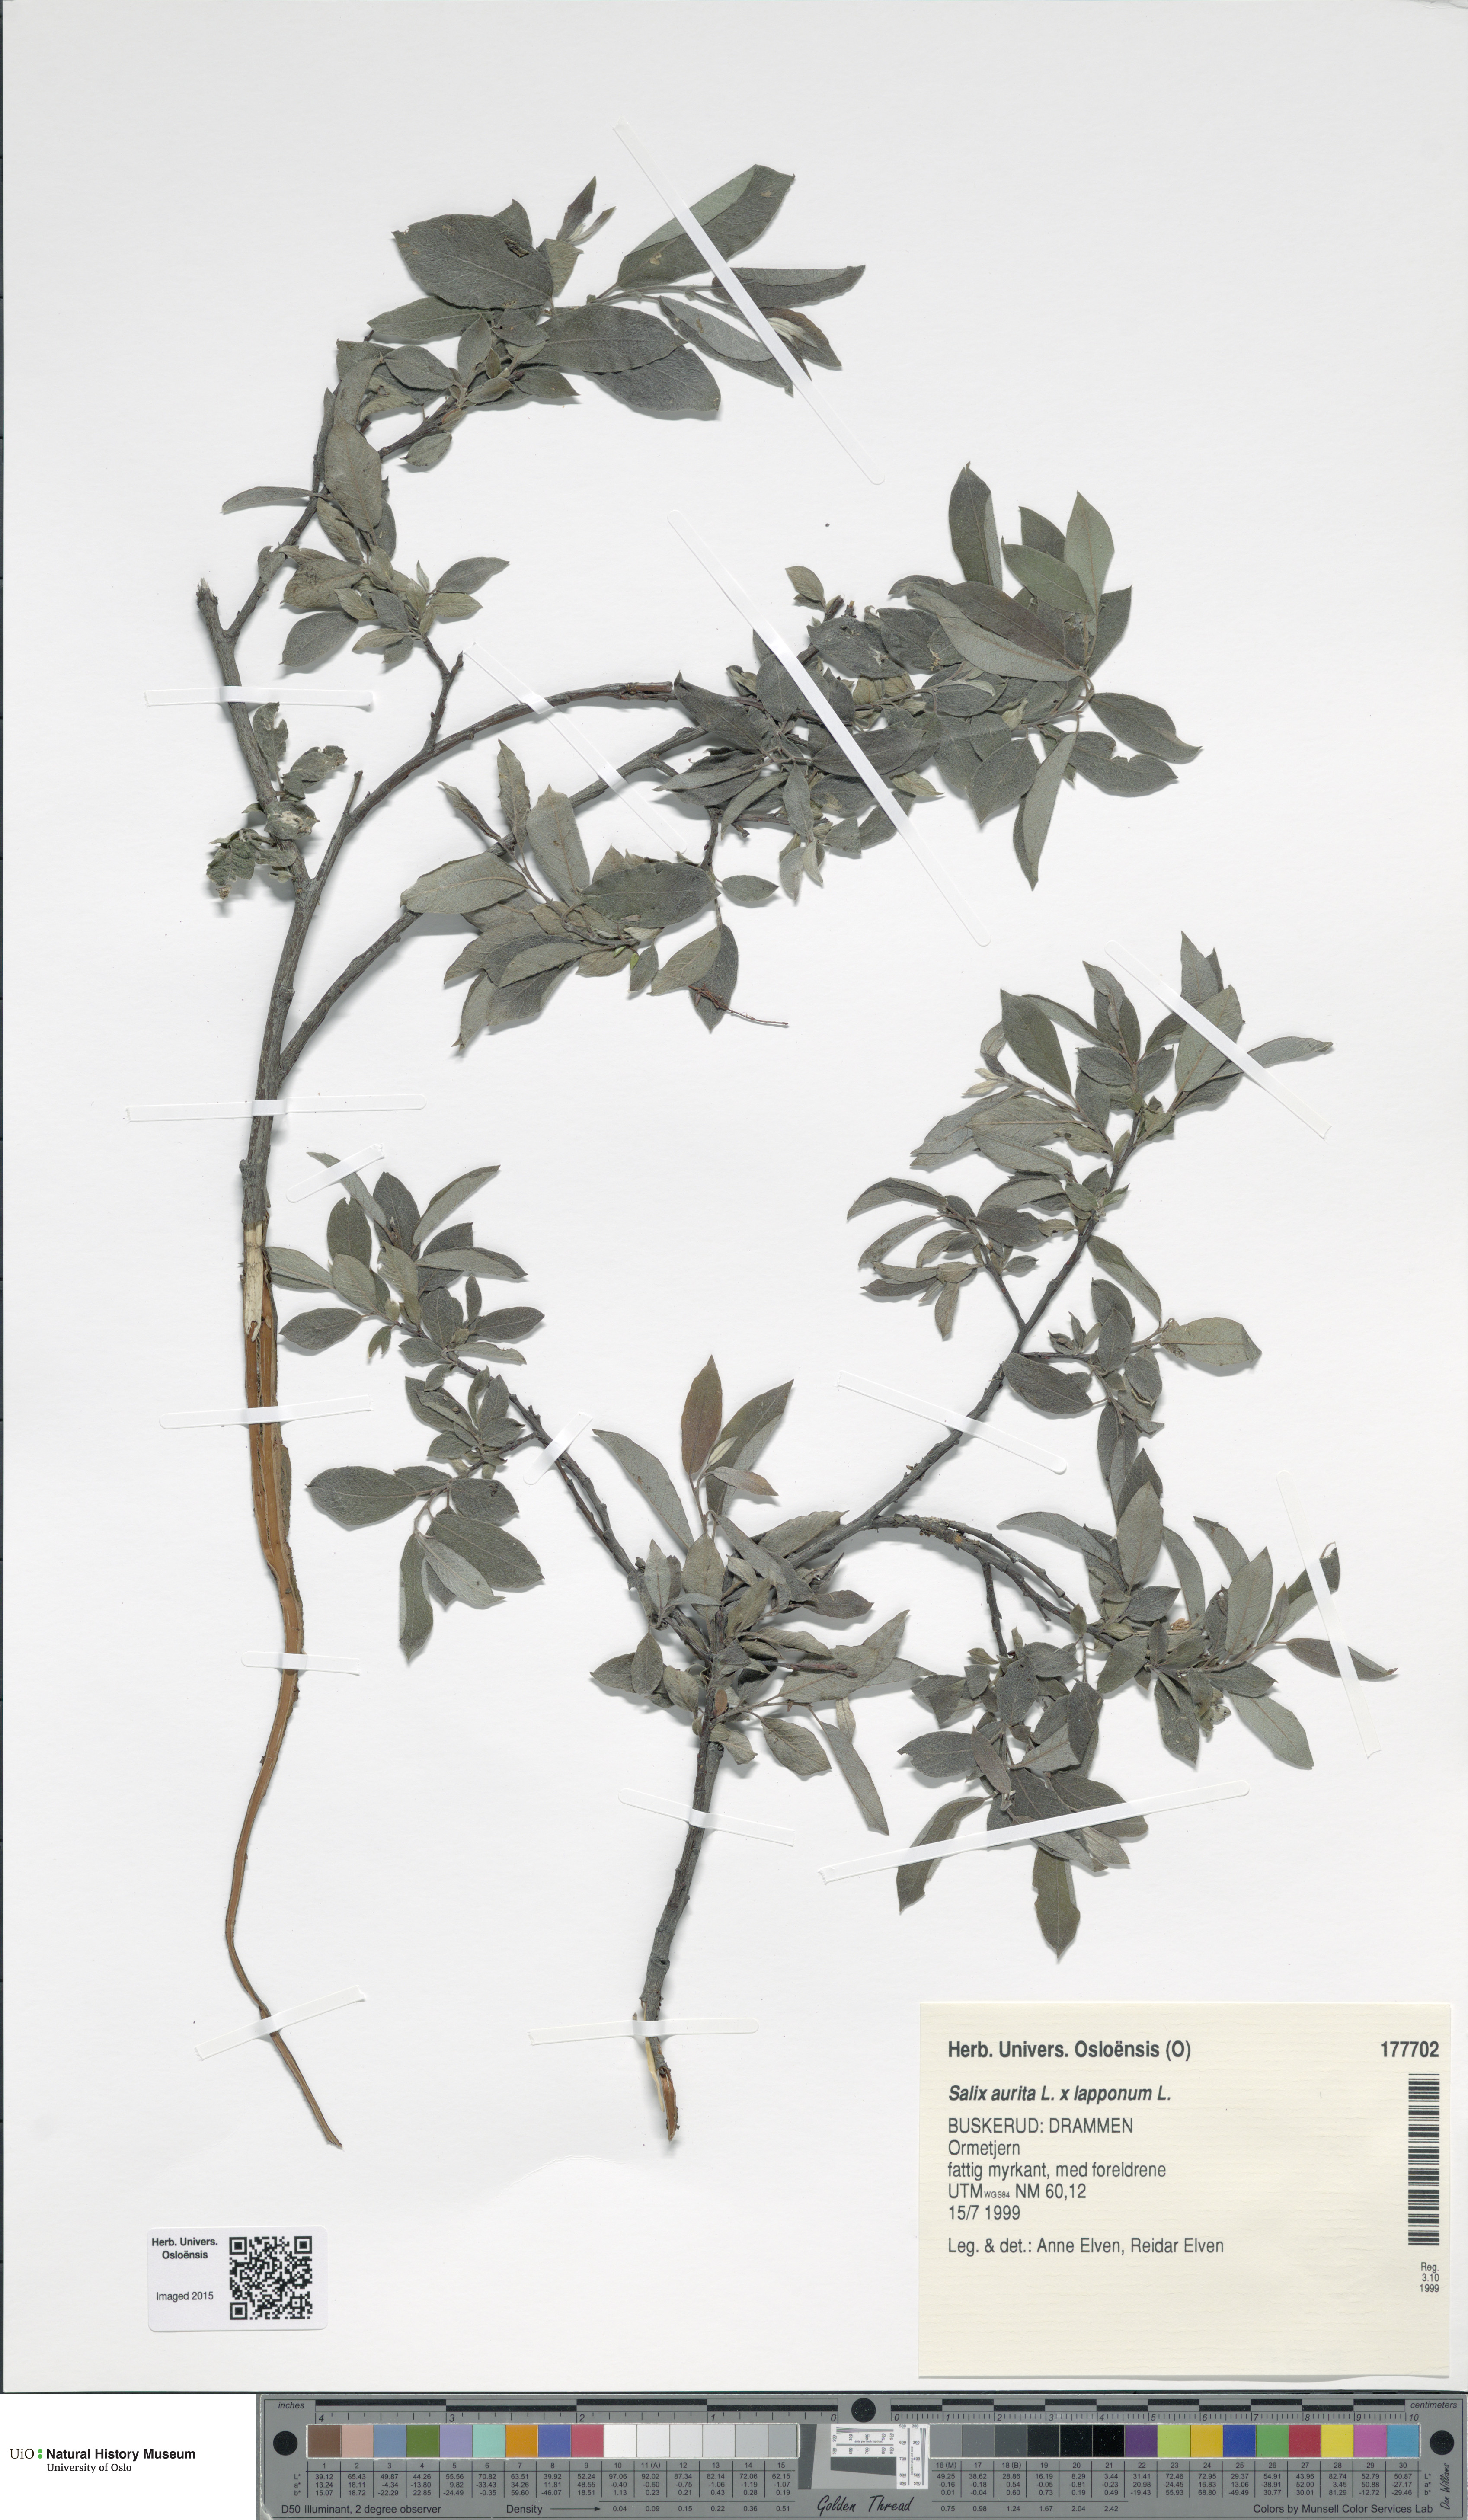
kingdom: Plantae
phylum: Tracheophyta
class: Magnoliopsida
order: Malpighiales
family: Salicaceae
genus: Salix
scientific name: Salix
